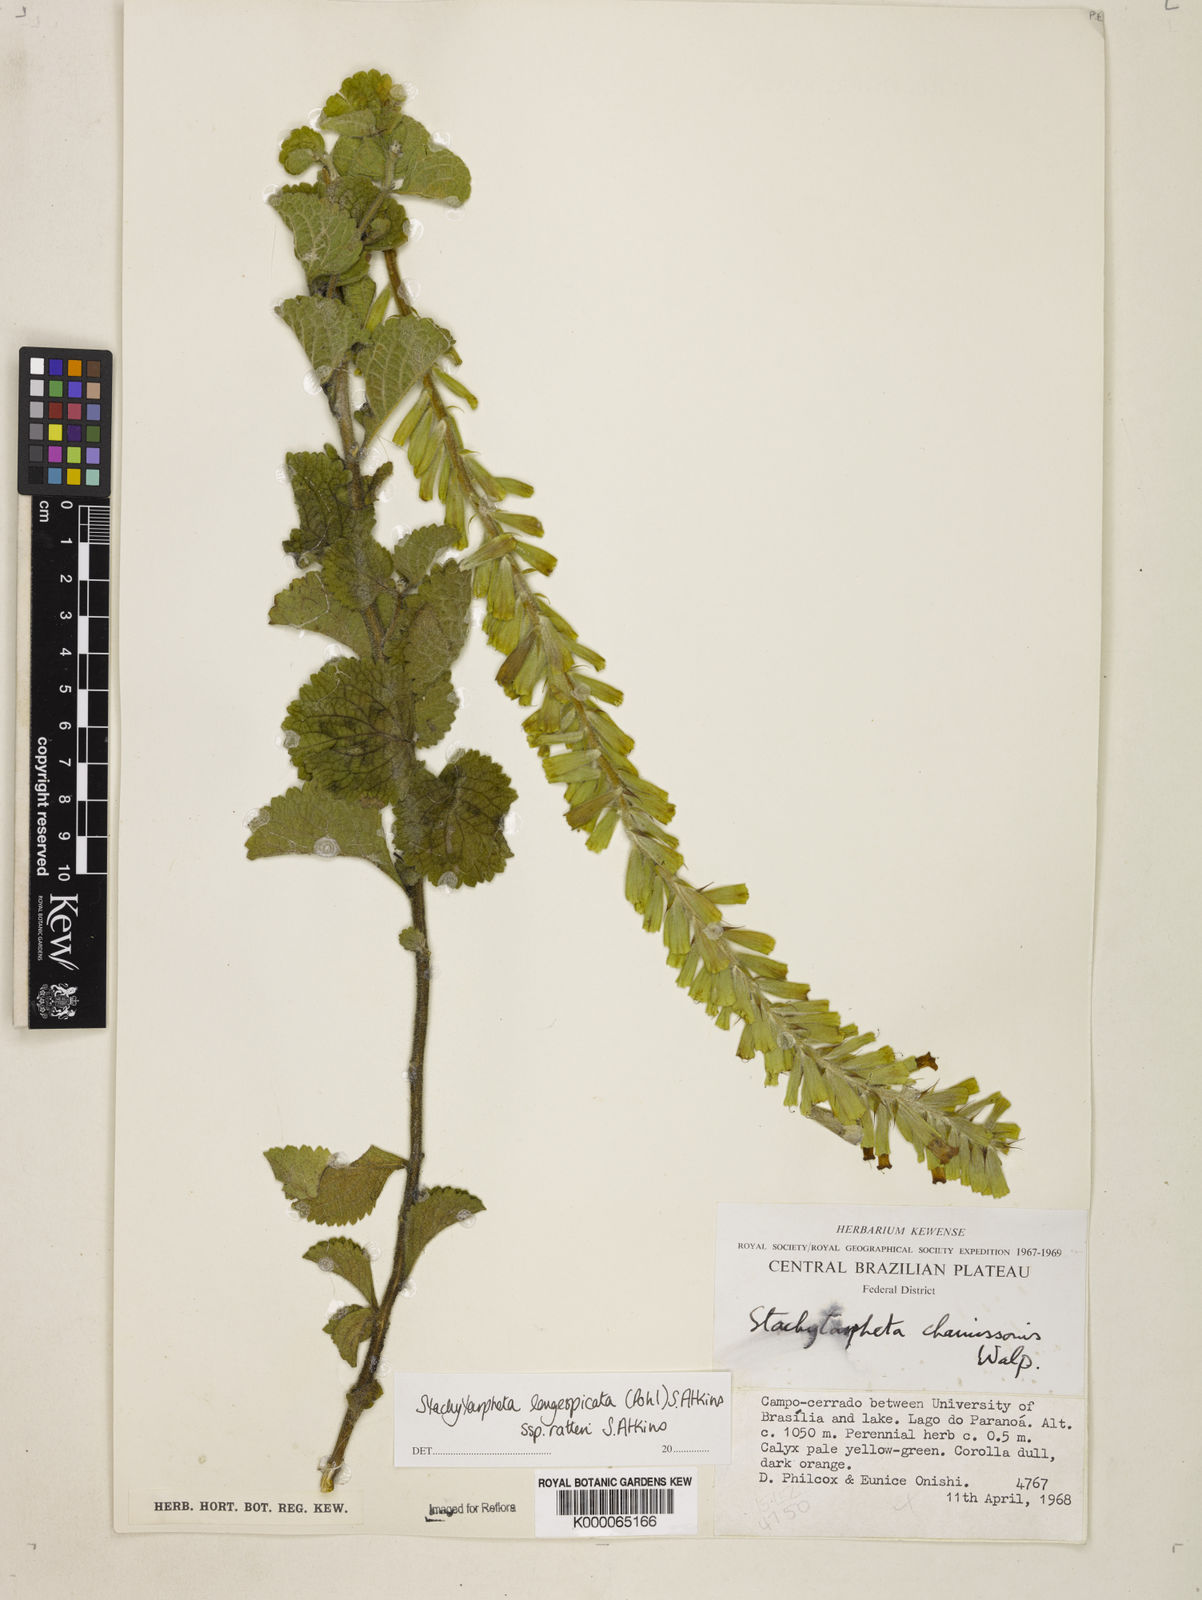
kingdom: Plantae
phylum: Tracheophyta
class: Magnoliopsida
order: Lamiales
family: Verbenaceae
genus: Stachytarpheta
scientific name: Stachytarpheta longispicata
